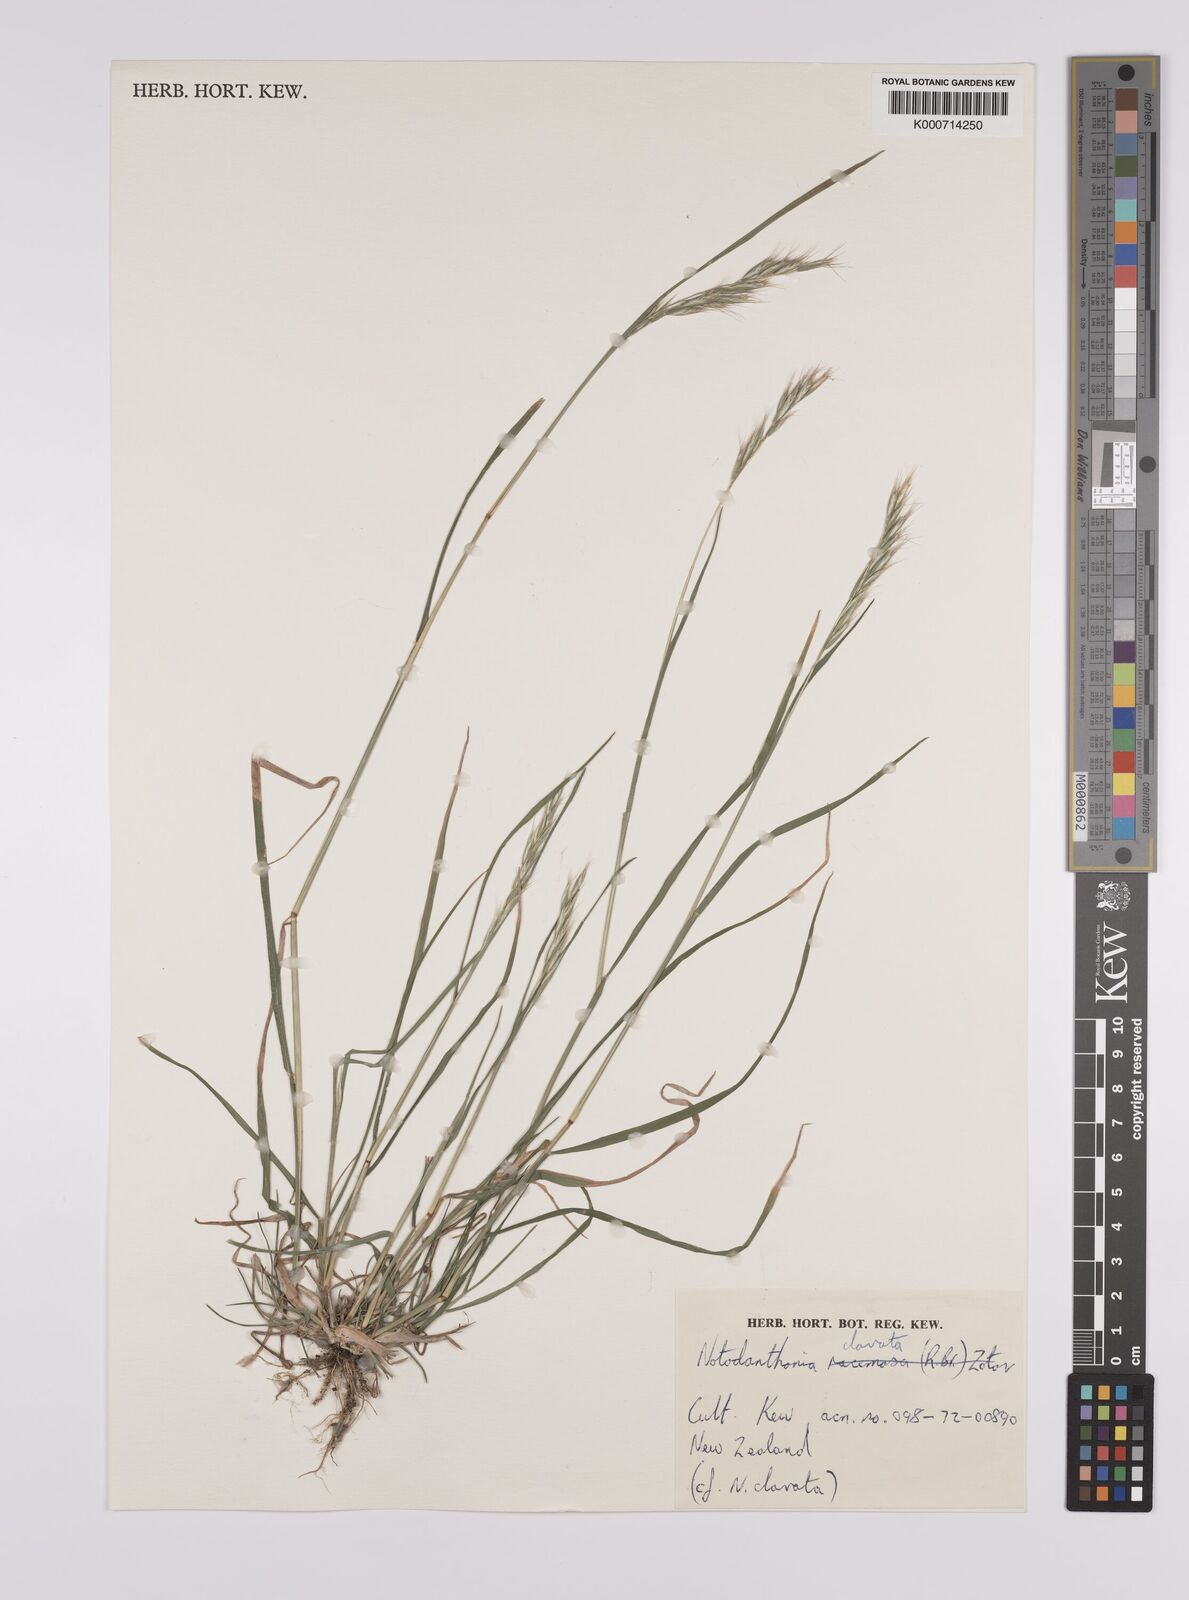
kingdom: Plantae
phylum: Tracheophyta
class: Liliopsida
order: Poales
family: Poaceae
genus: Rytidosperma
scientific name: Rytidosperma clavatum
